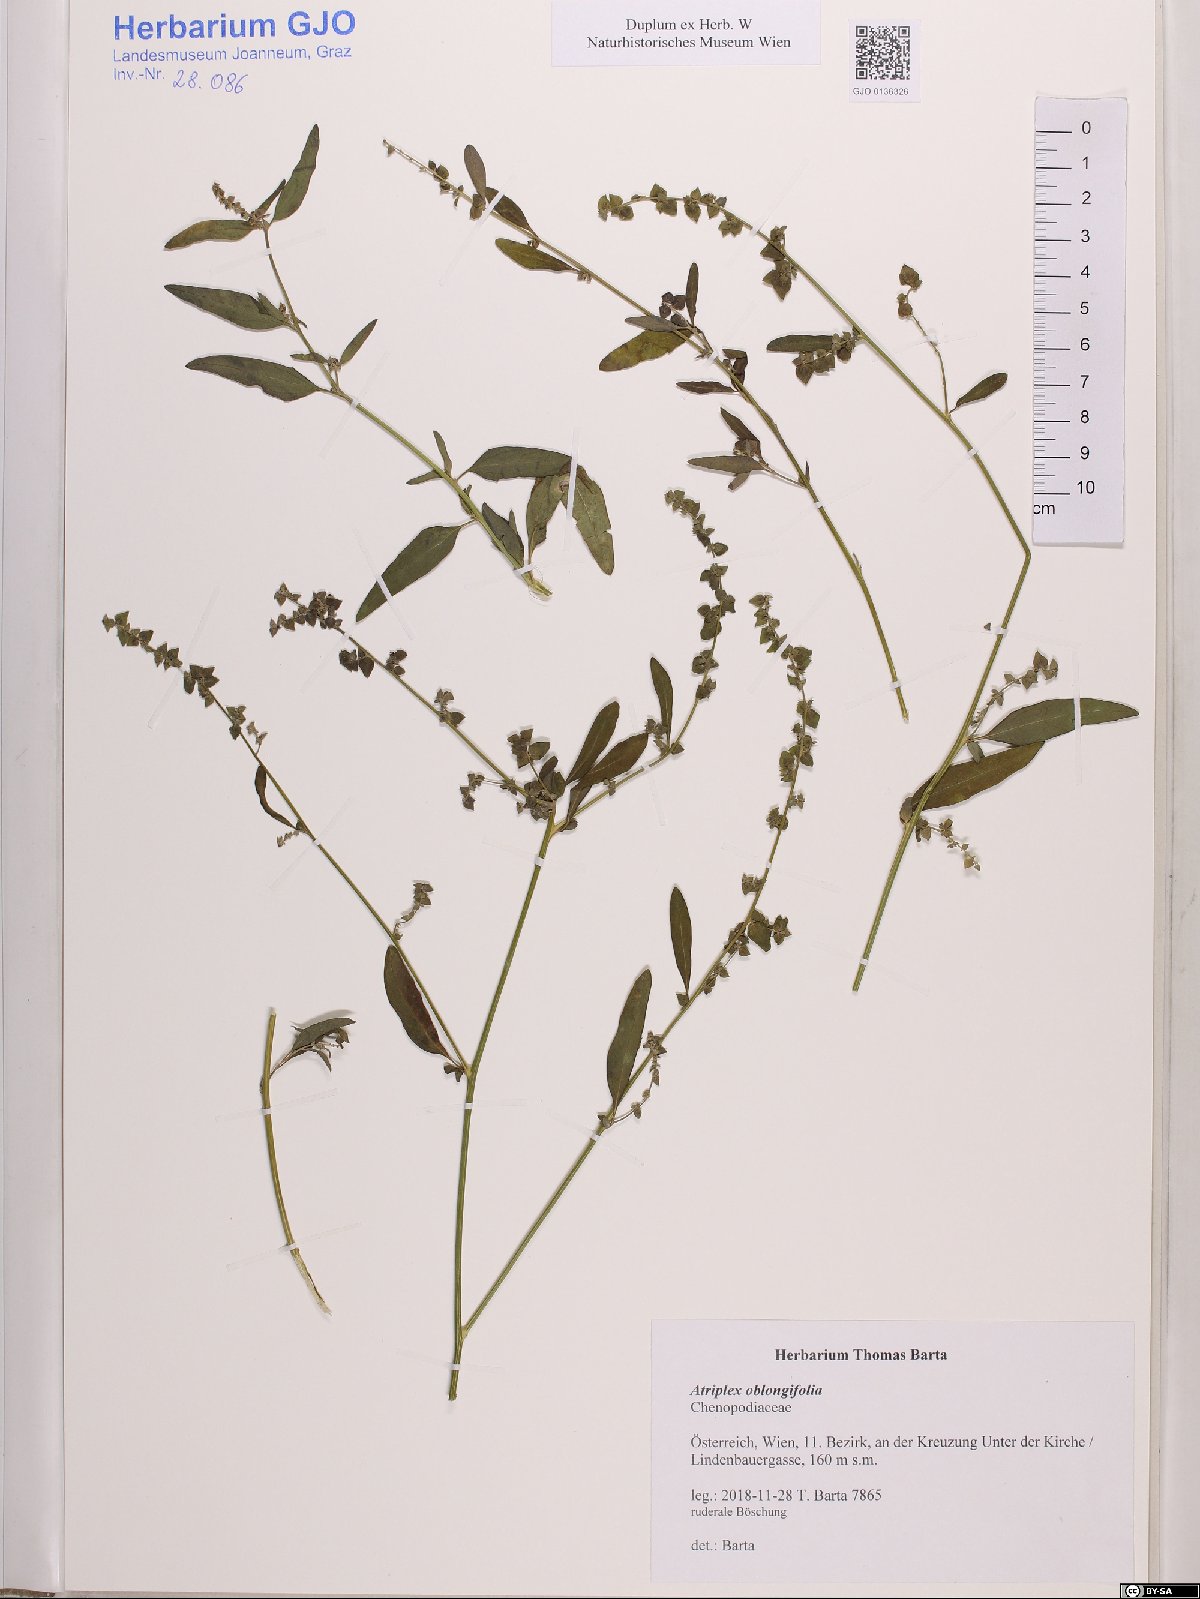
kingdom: Plantae
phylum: Tracheophyta
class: Magnoliopsida
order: Caryophyllales
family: Amaranthaceae
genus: Atriplex
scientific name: Atriplex oblongifolia
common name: Oblongleaf orache
